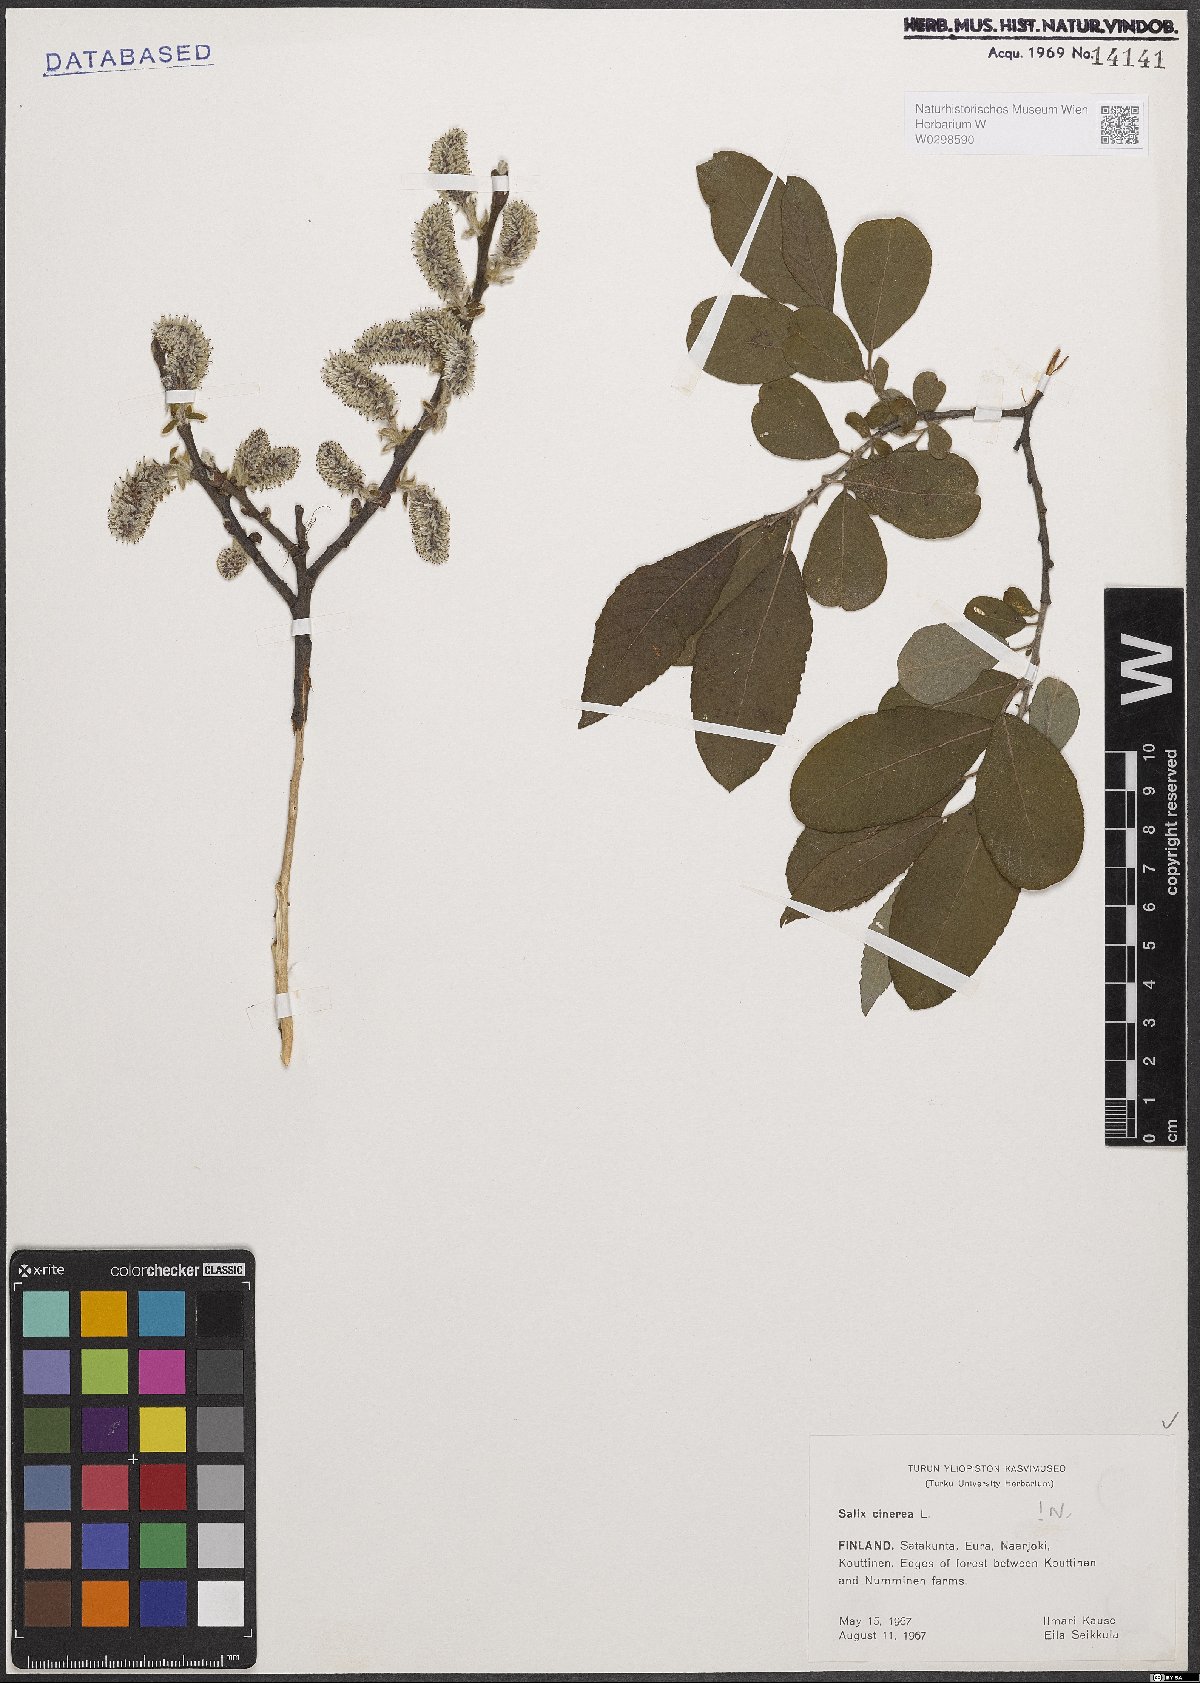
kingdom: Plantae
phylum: Tracheophyta
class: Magnoliopsida
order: Malpighiales
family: Salicaceae
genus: Salix
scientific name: Salix cinerea
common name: Common sallow
